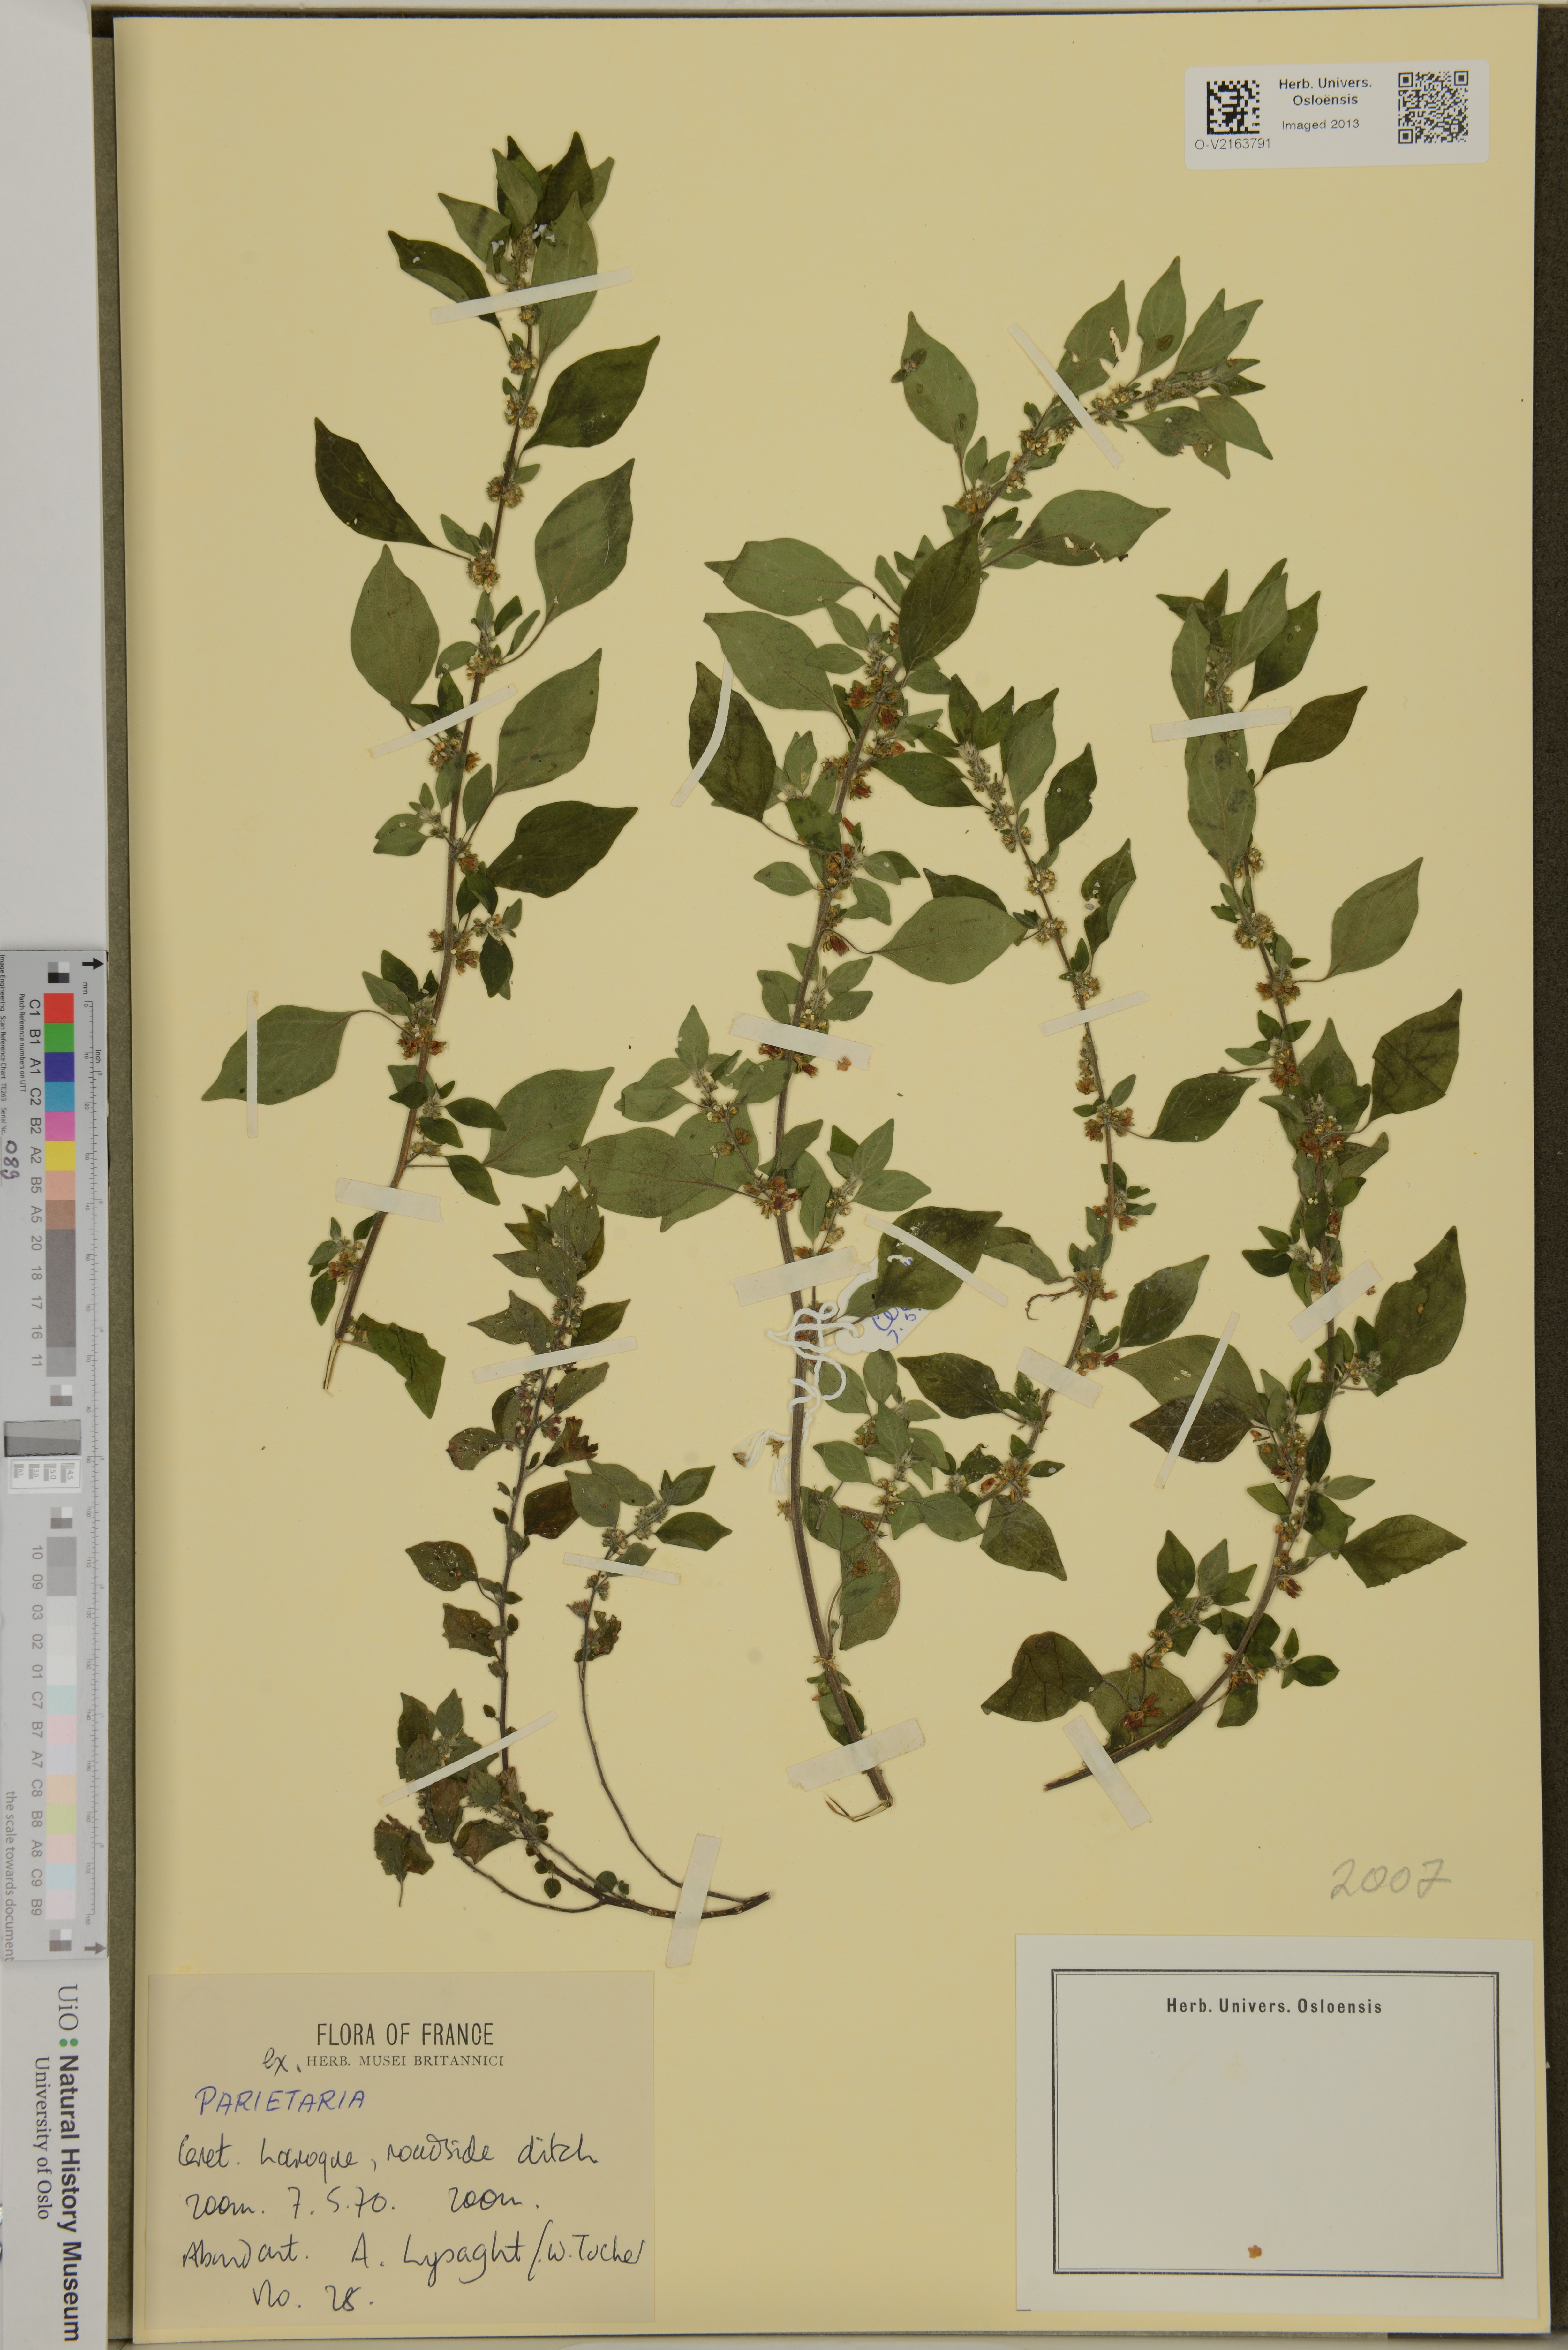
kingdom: Plantae
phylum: Tracheophyta
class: Magnoliopsida
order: Rosales
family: Urticaceae
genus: Parietaria
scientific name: Parietaria
